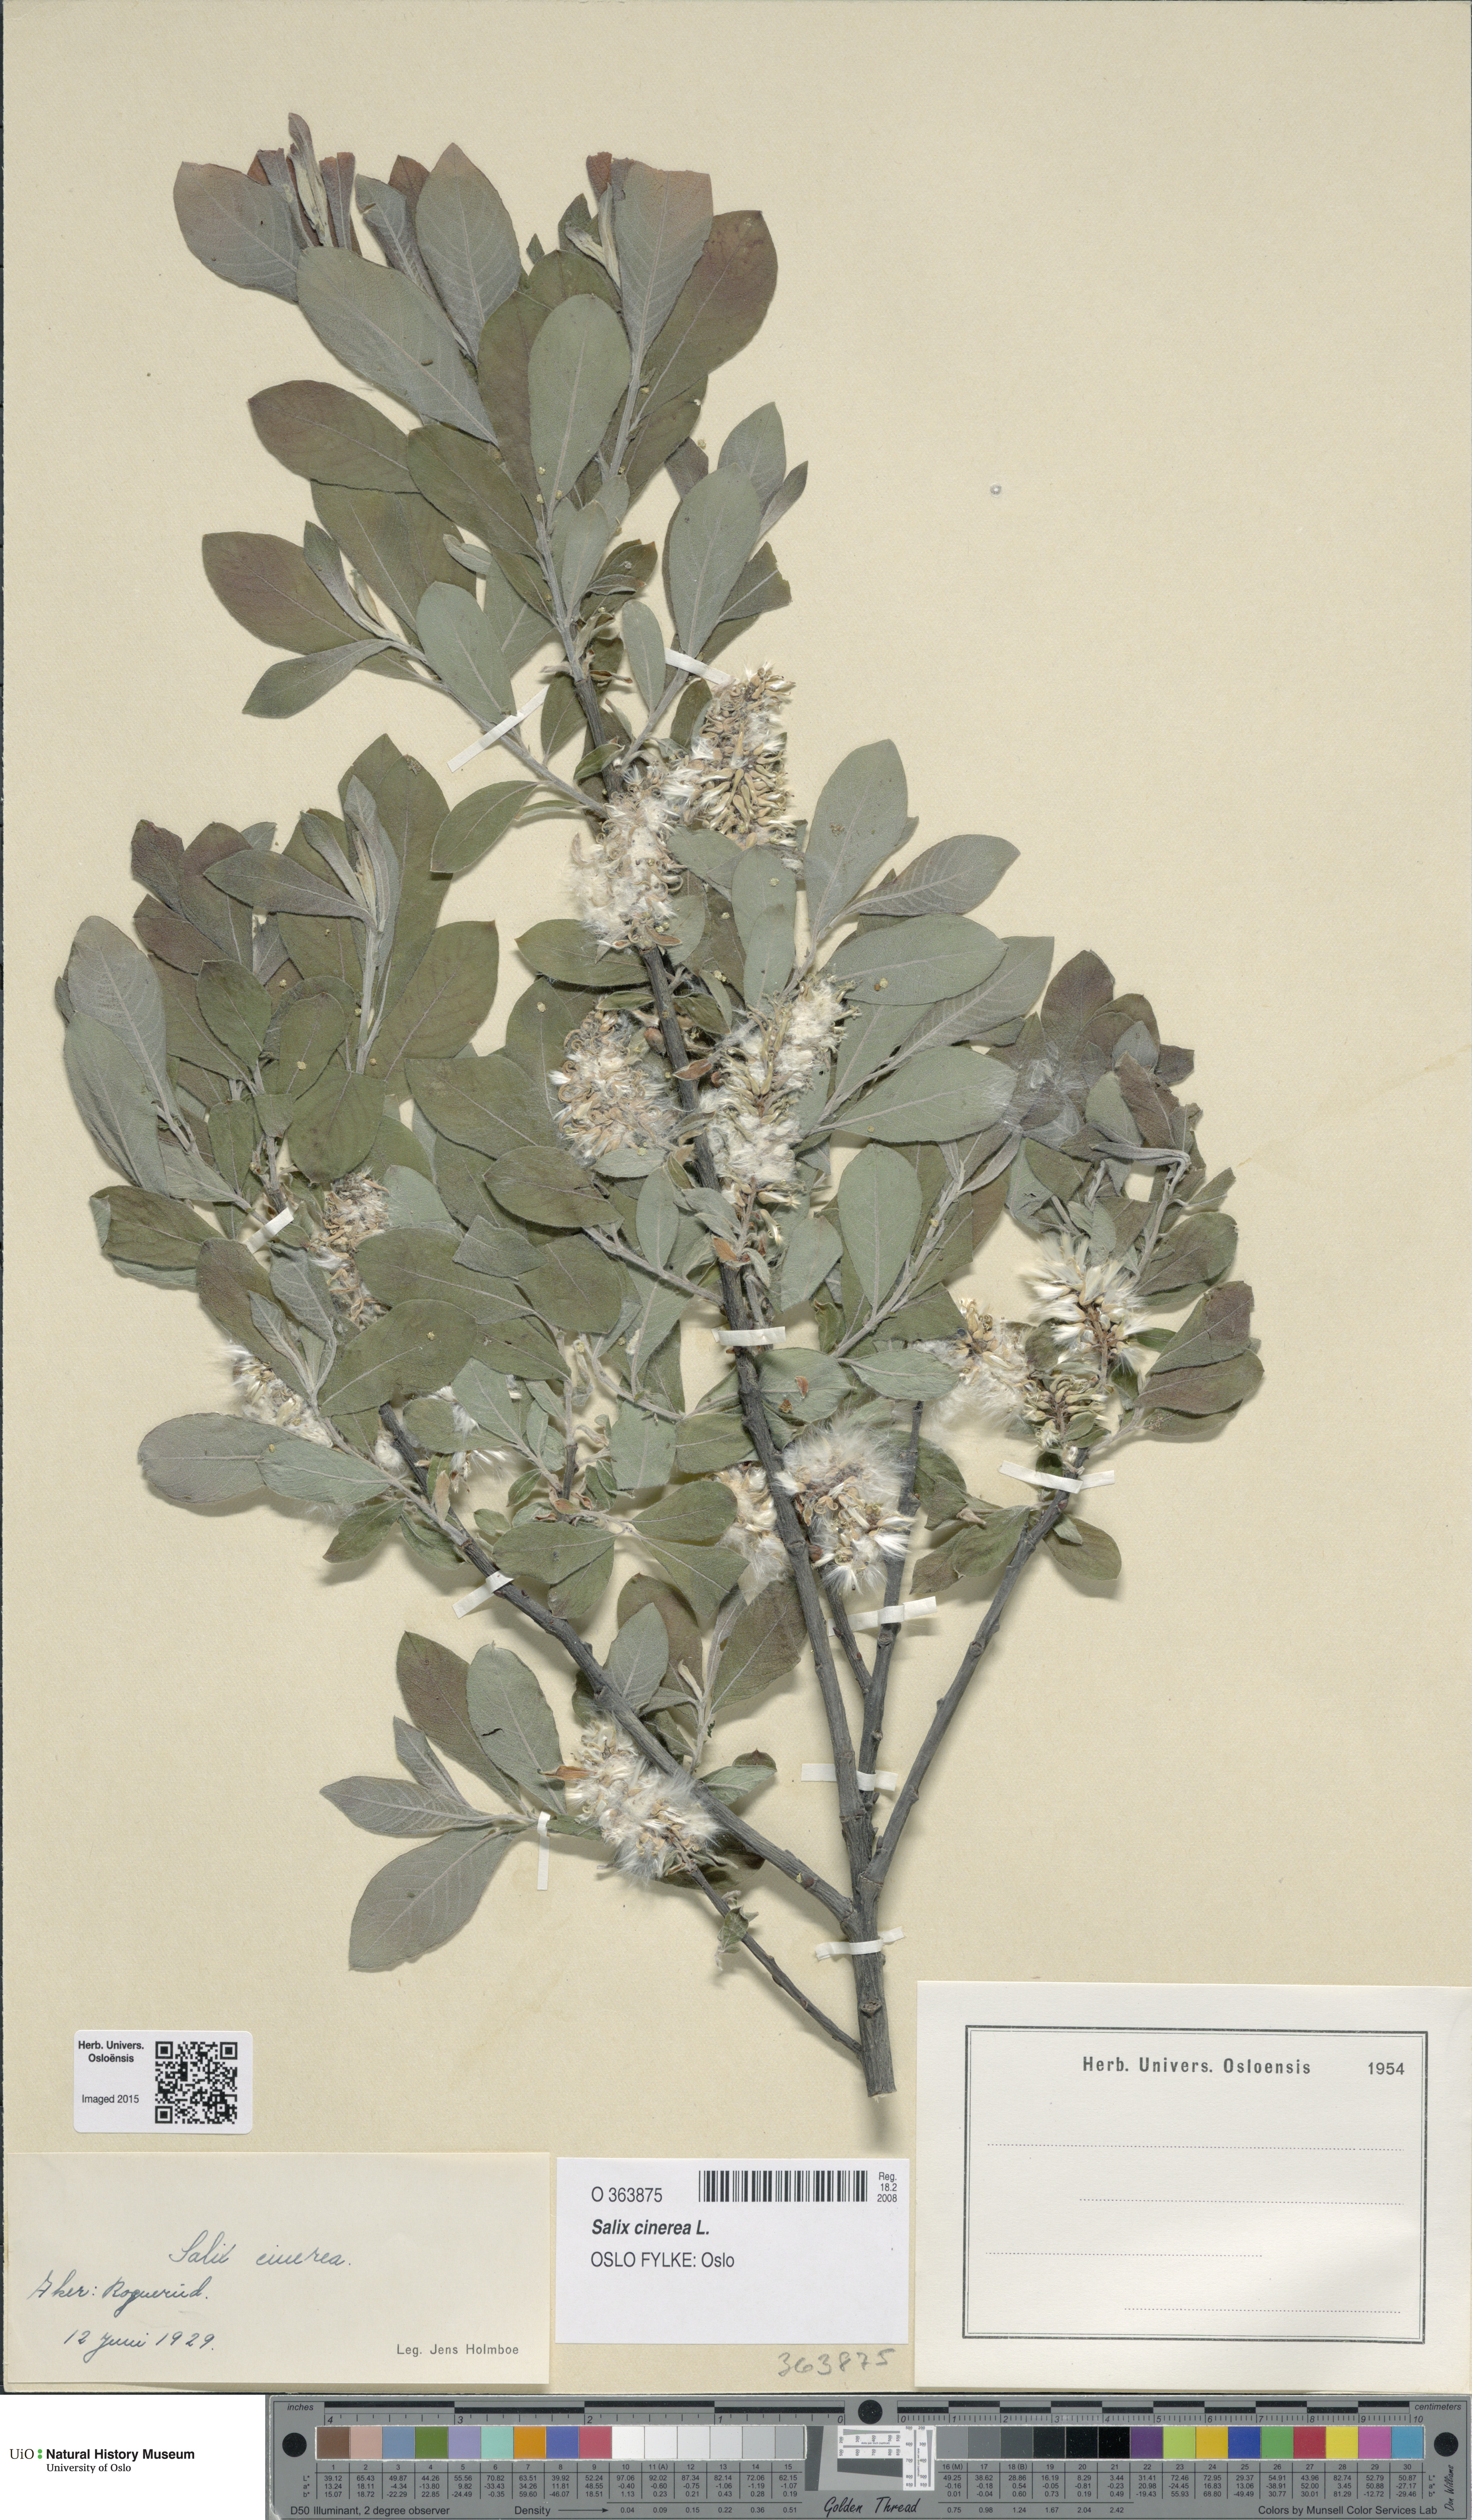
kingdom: Plantae
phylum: Tracheophyta
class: Magnoliopsida
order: Malpighiales
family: Salicaceae
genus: Salix
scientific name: Salix cinerea
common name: Common sallow
